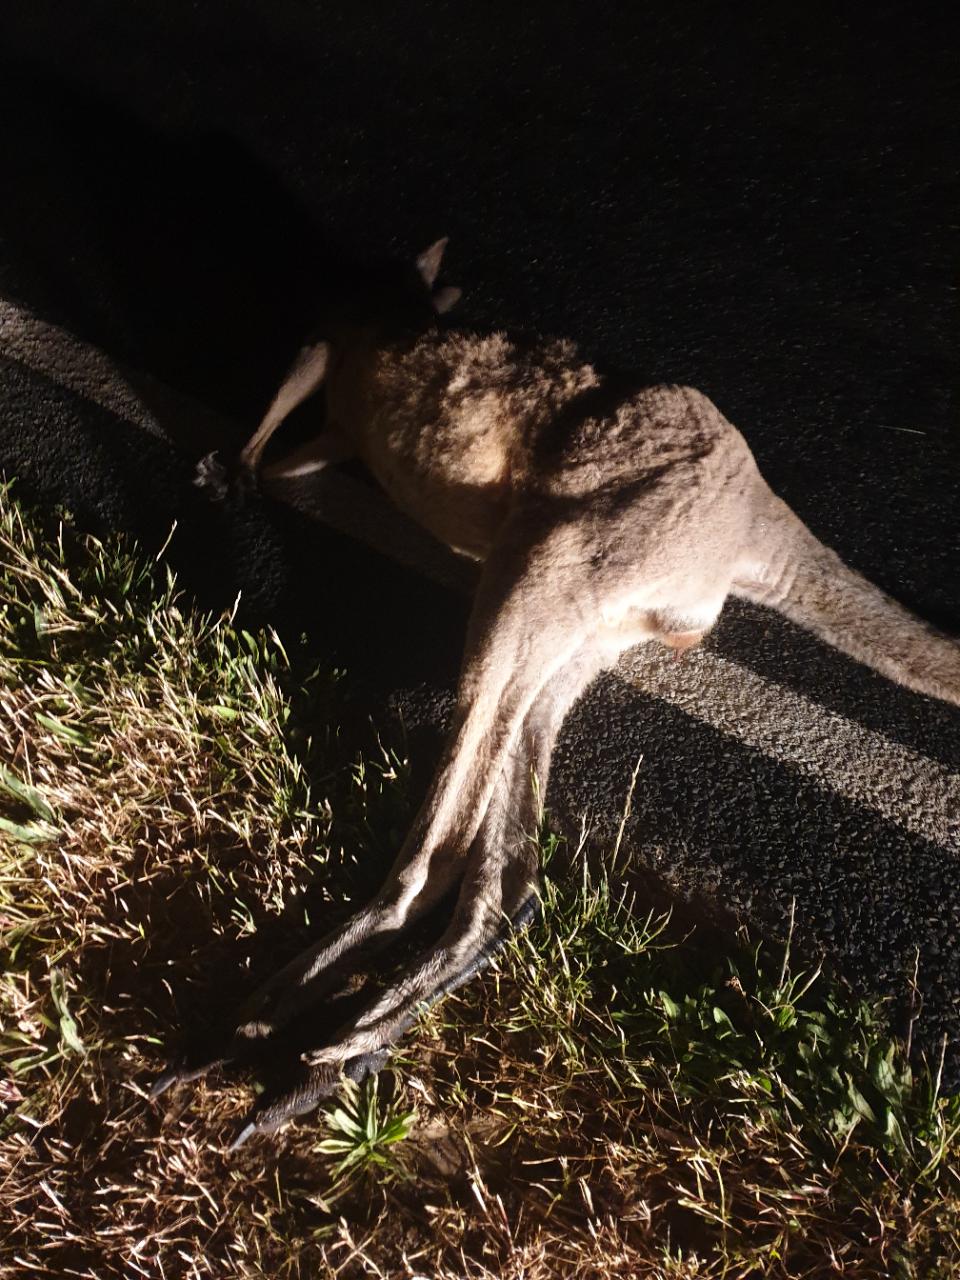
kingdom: Animalia
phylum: Chordata
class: Mammalia
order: Diprotodontia
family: Macropodidae
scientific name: Macropodidae
